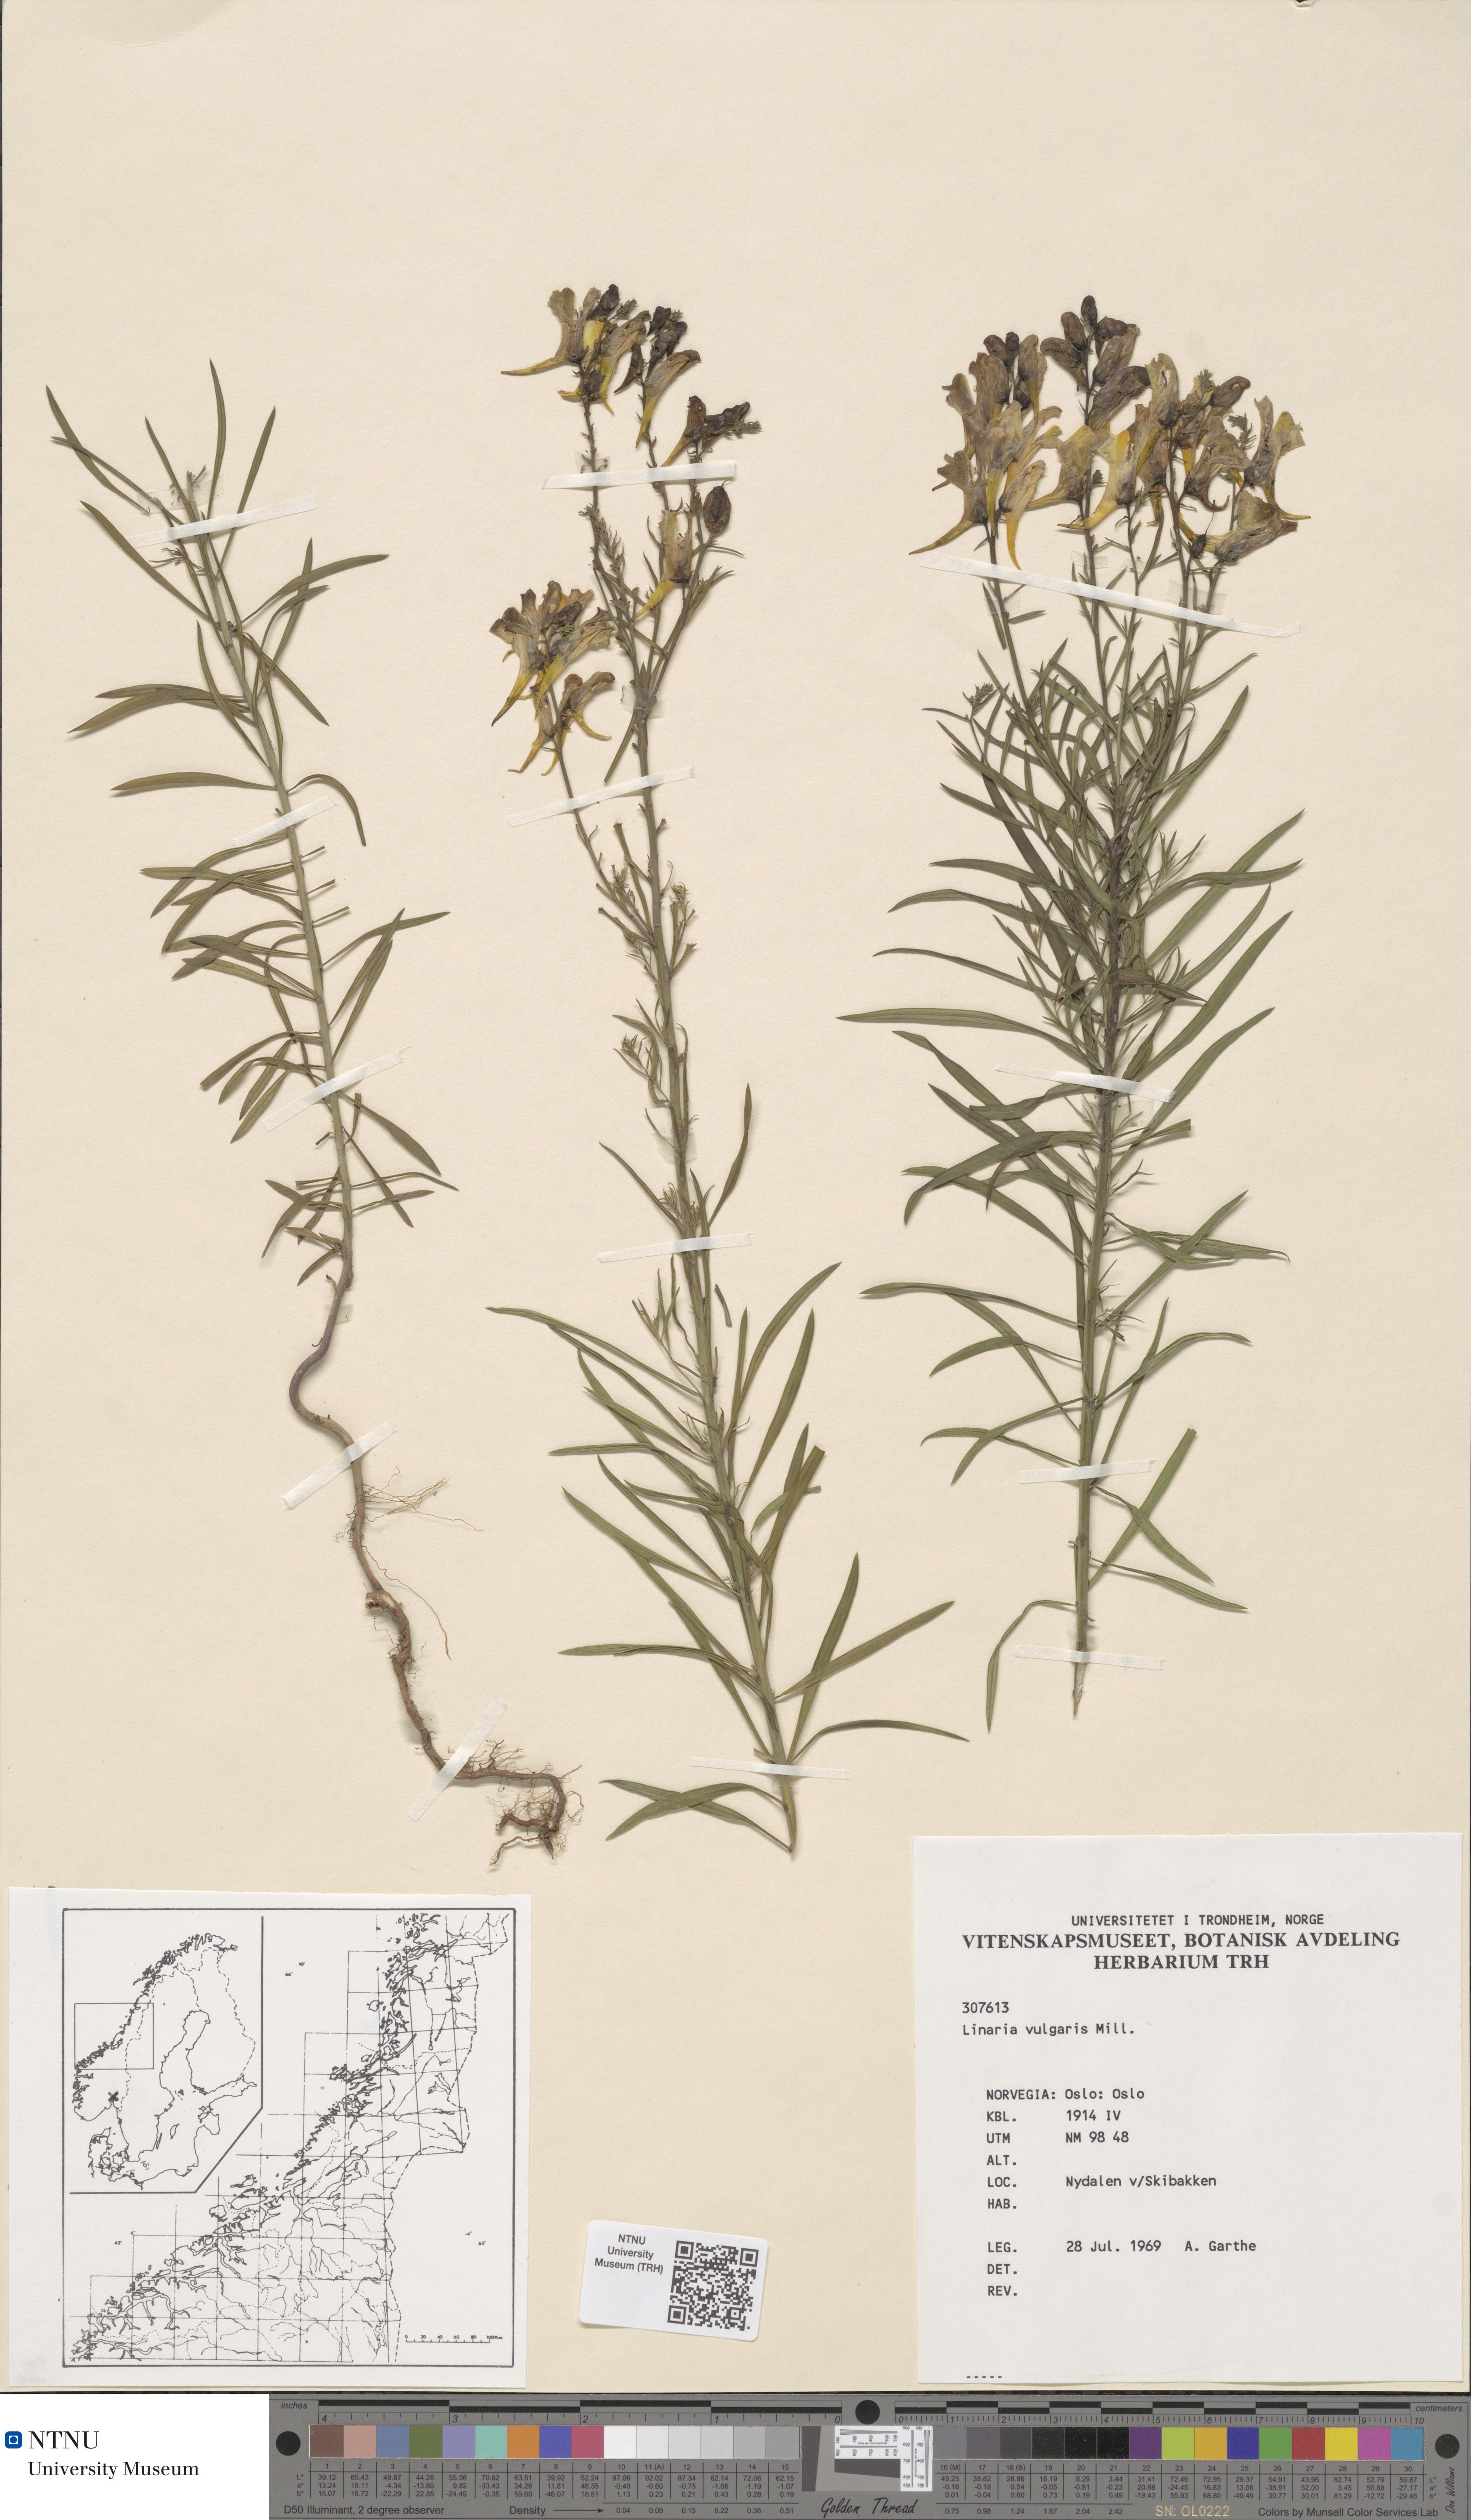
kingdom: Plantae
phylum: Tracheophyta
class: Magnoliopsida
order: Lamiales
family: Plantaginaceae
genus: Linaria
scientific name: Linaria vulgaris
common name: Butter and eggs
